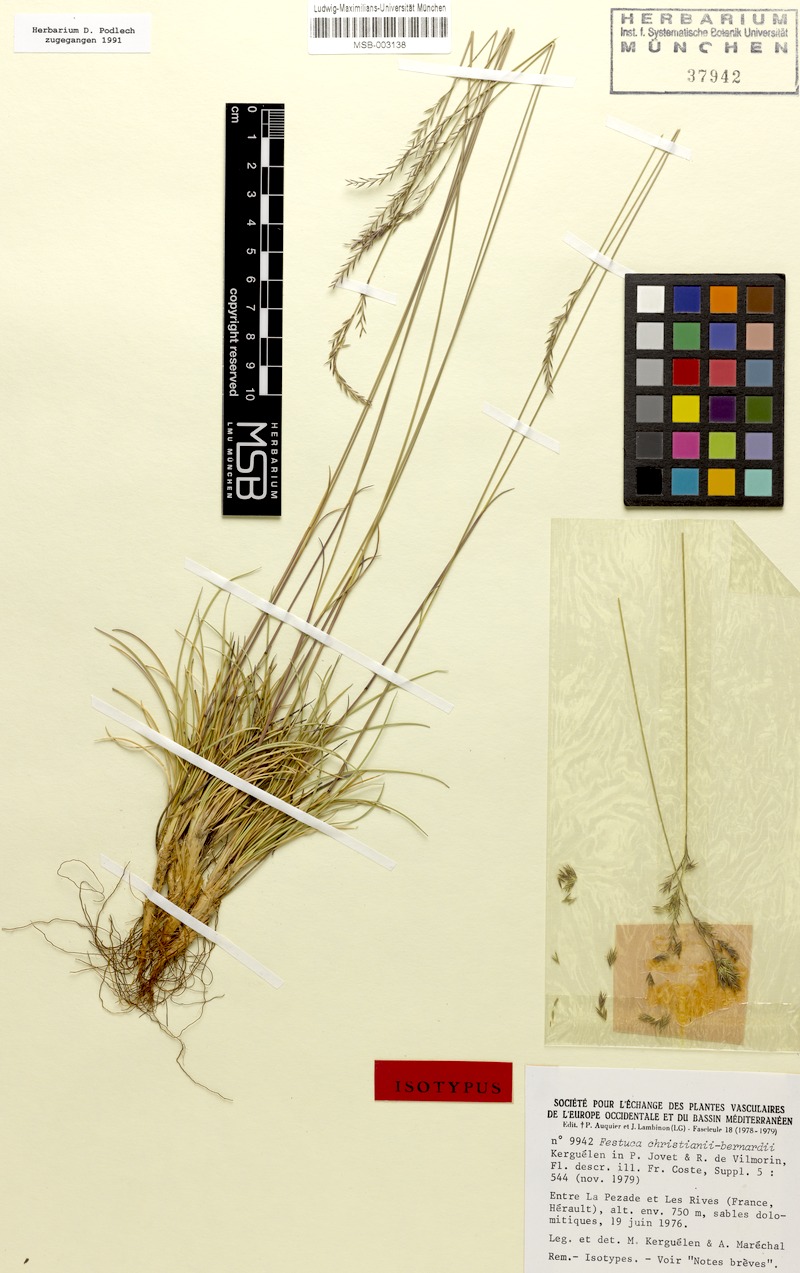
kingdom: Plantae
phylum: Tracheophyta
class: Liliopsida
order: Poales
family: Poaceae
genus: Festuca
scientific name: Festuca christianii-bernardii
